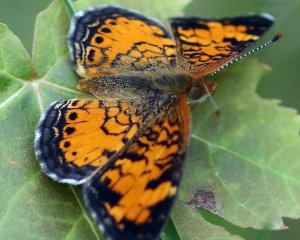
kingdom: Animalia
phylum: Arthropoda
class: Insecta
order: Lepidoptera
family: Nymphalidae
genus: Phyciodes
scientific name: Phyciodes tharos
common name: Pearl Crescent
